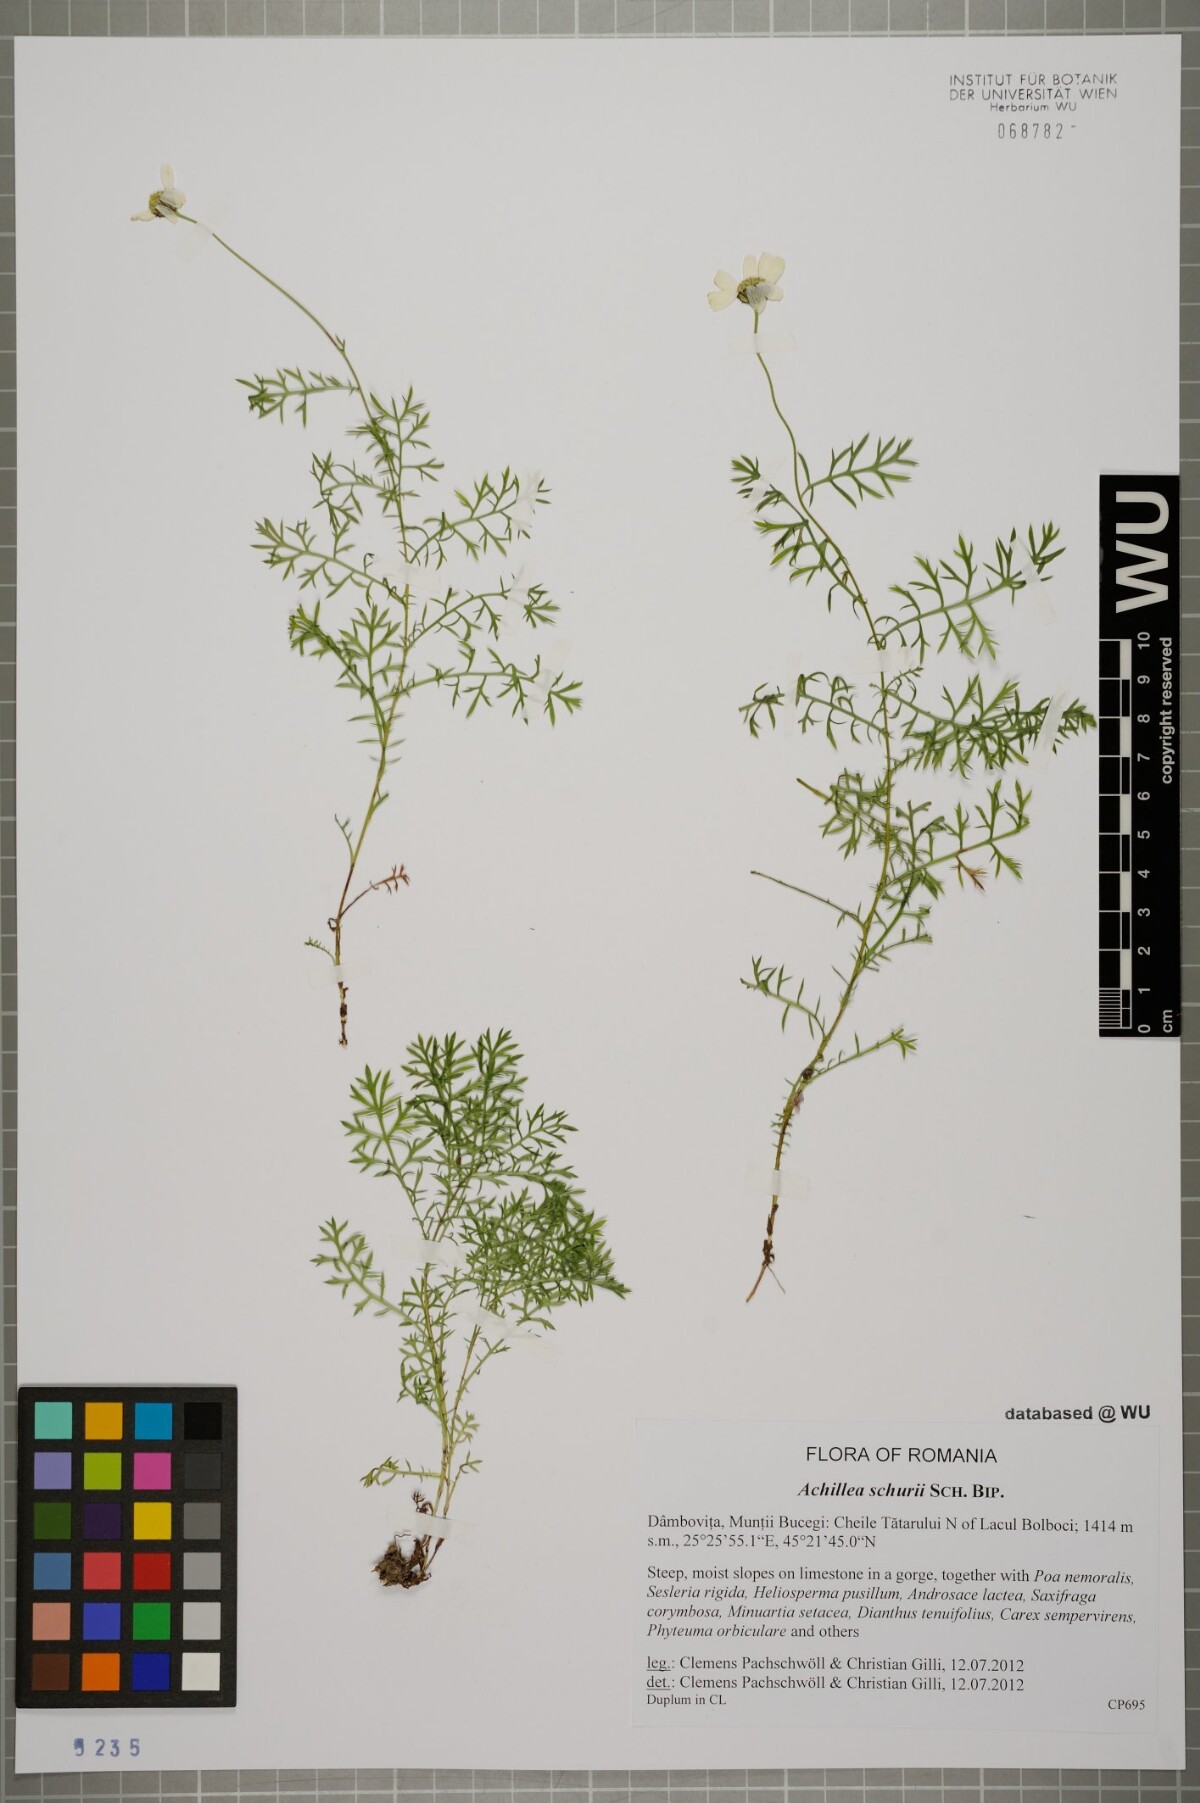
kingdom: Plantae
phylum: Tracheophyta
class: Magnoliopsida
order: Asterales
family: Asteraceae
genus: Achillea
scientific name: Achillea oxyloba
